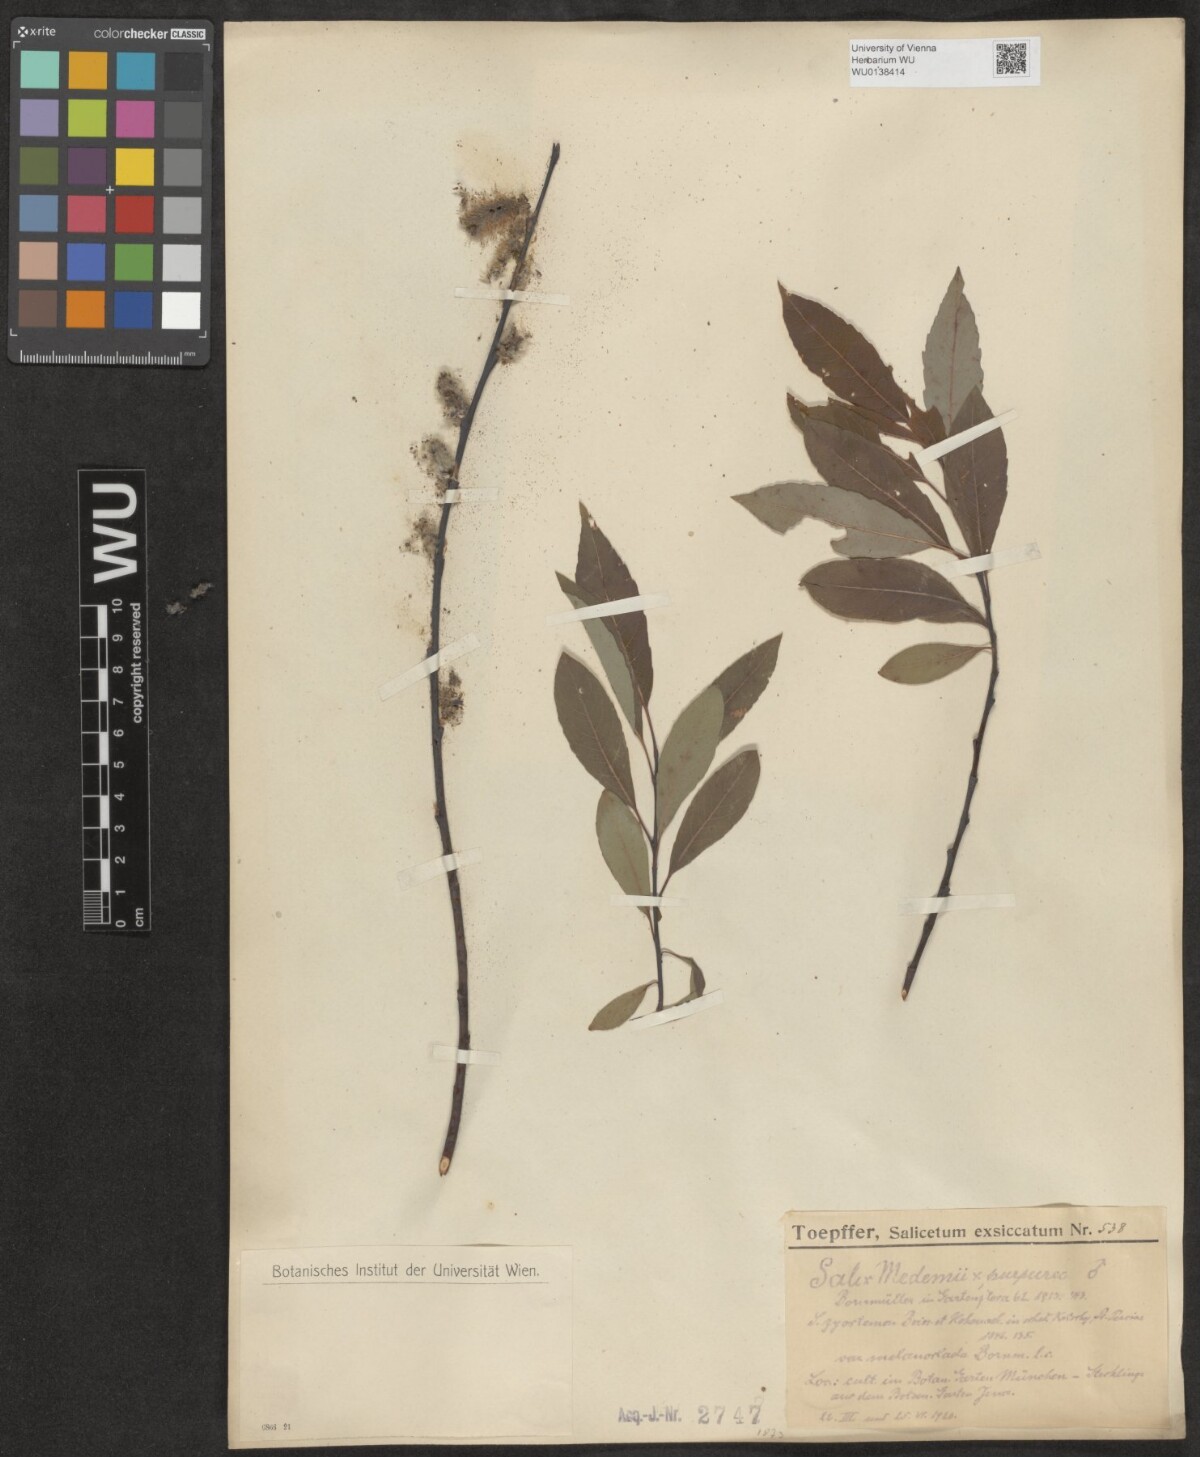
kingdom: Plantae
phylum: Tracheophyta
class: Magnoliopsida
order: Malpighiales
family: Salicaceae
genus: Salix
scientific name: Salix aegyptiaca
